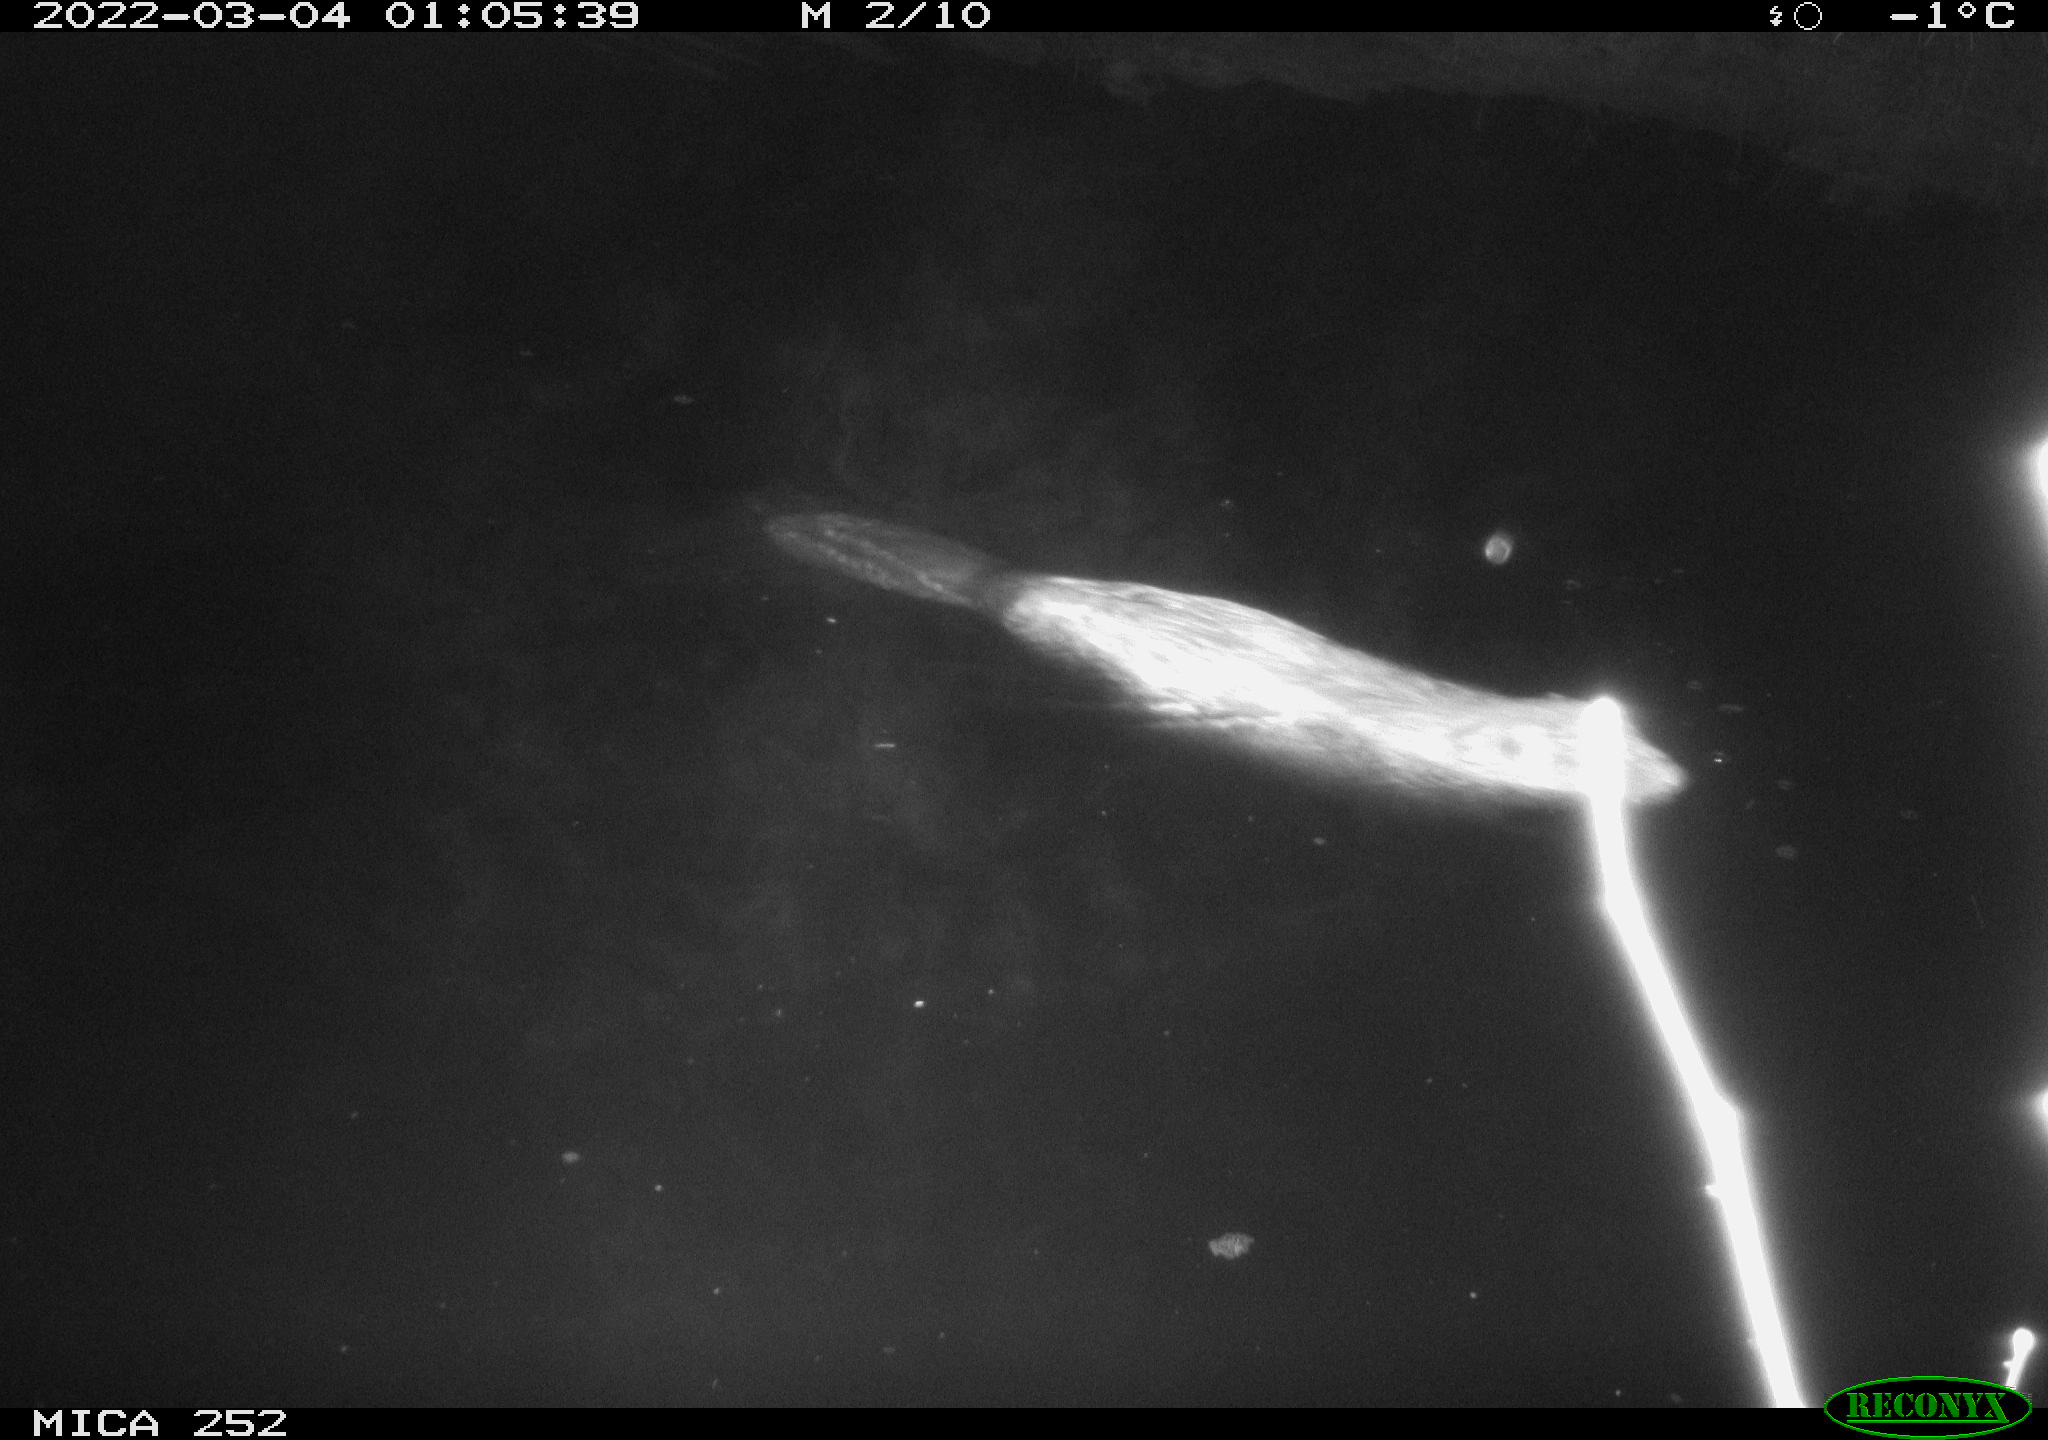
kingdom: Animalia
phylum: Chordata
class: Mammalia
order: Rodentia
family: Castoridae
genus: Castor
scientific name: Castor fiber
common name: Eurasian beaver
